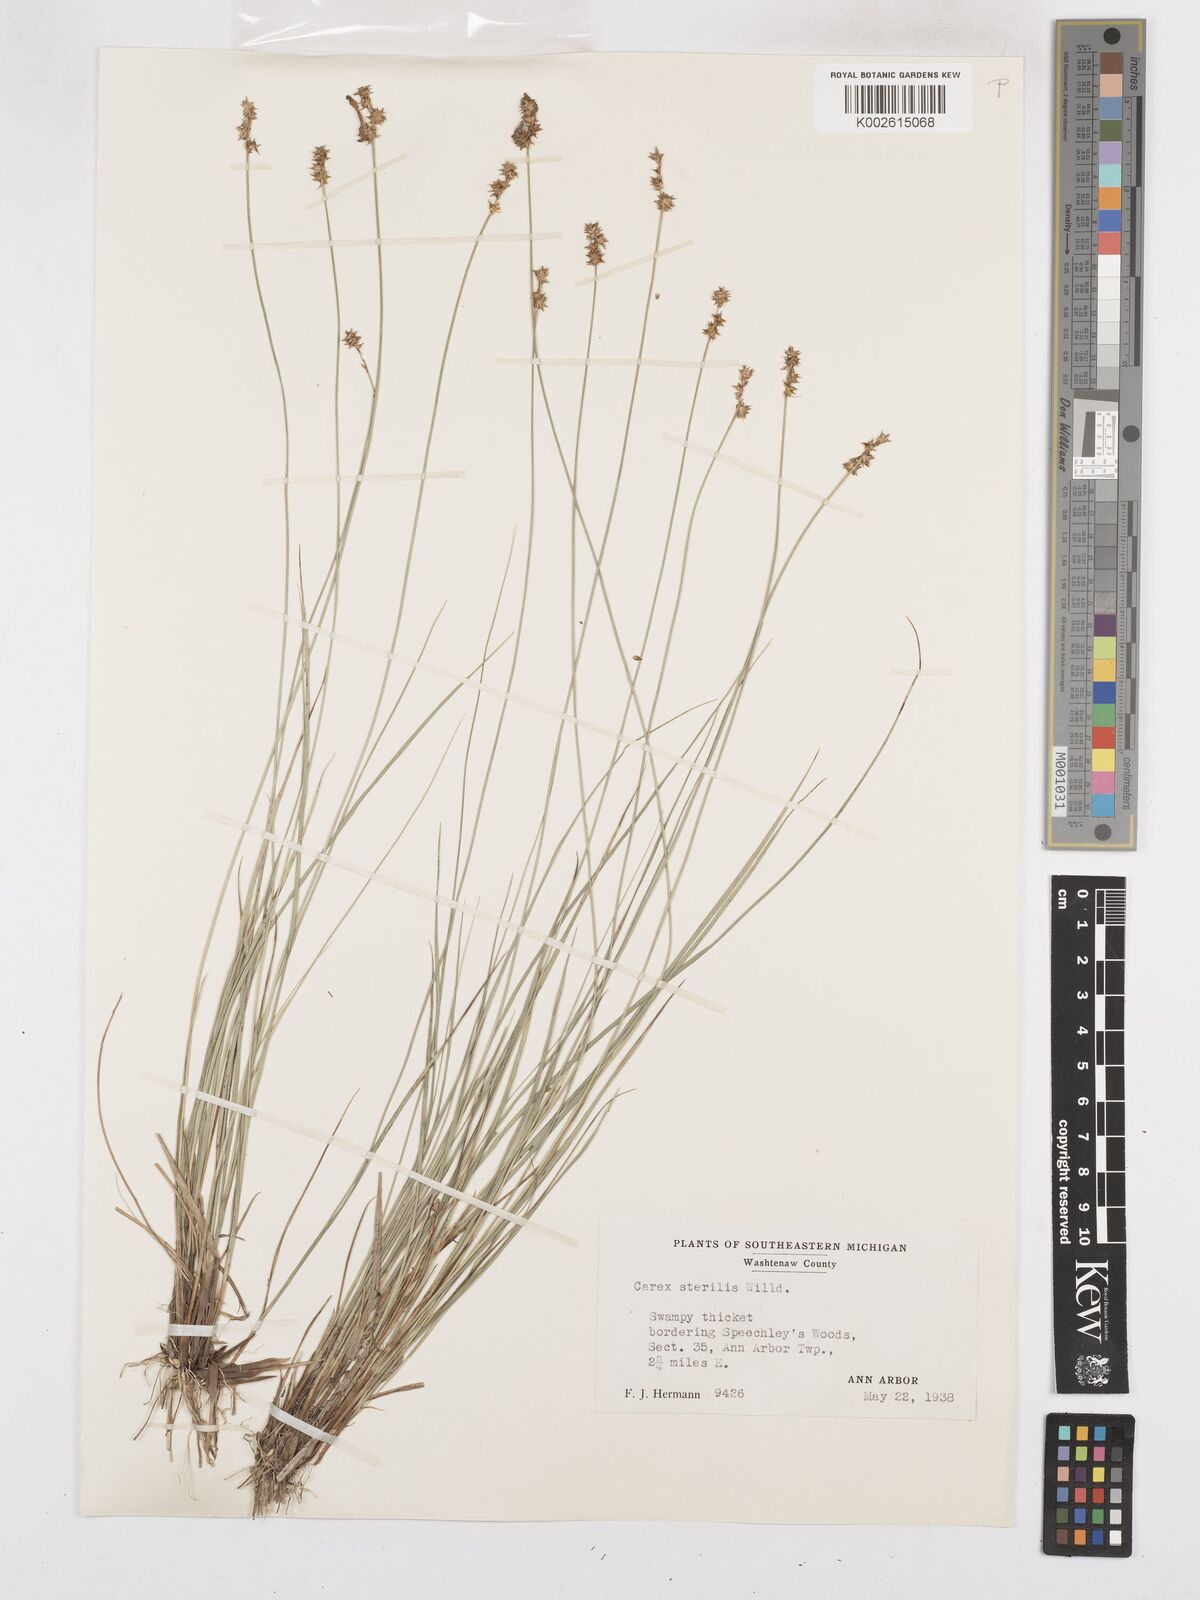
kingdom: Plantae
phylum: Tracheophyta
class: Liliopsida
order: Poales
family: Cyperaceae
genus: Carex
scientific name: Carex sterilis
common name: Dioecious sedge
